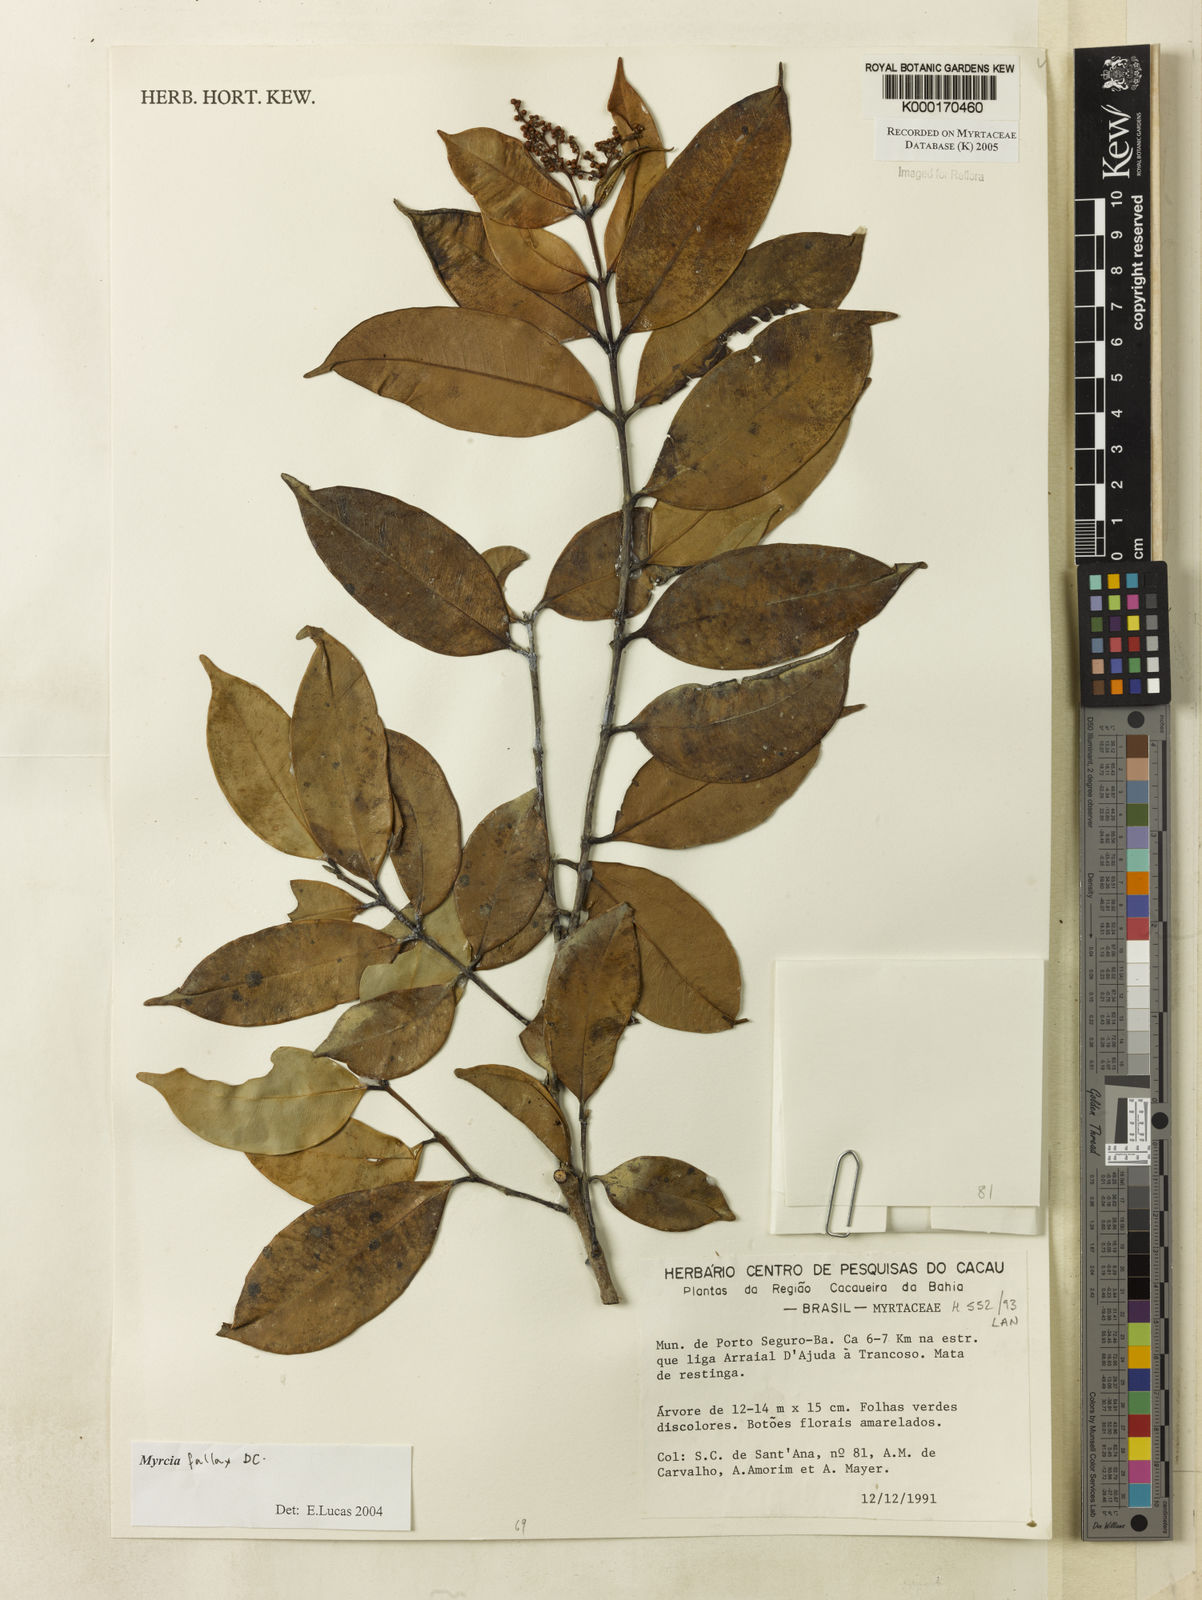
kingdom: Plantae
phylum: Tracheophyta
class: Magnoliopsida
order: Myrtales
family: Myrtaceae
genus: Myrcia
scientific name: Myrcia
